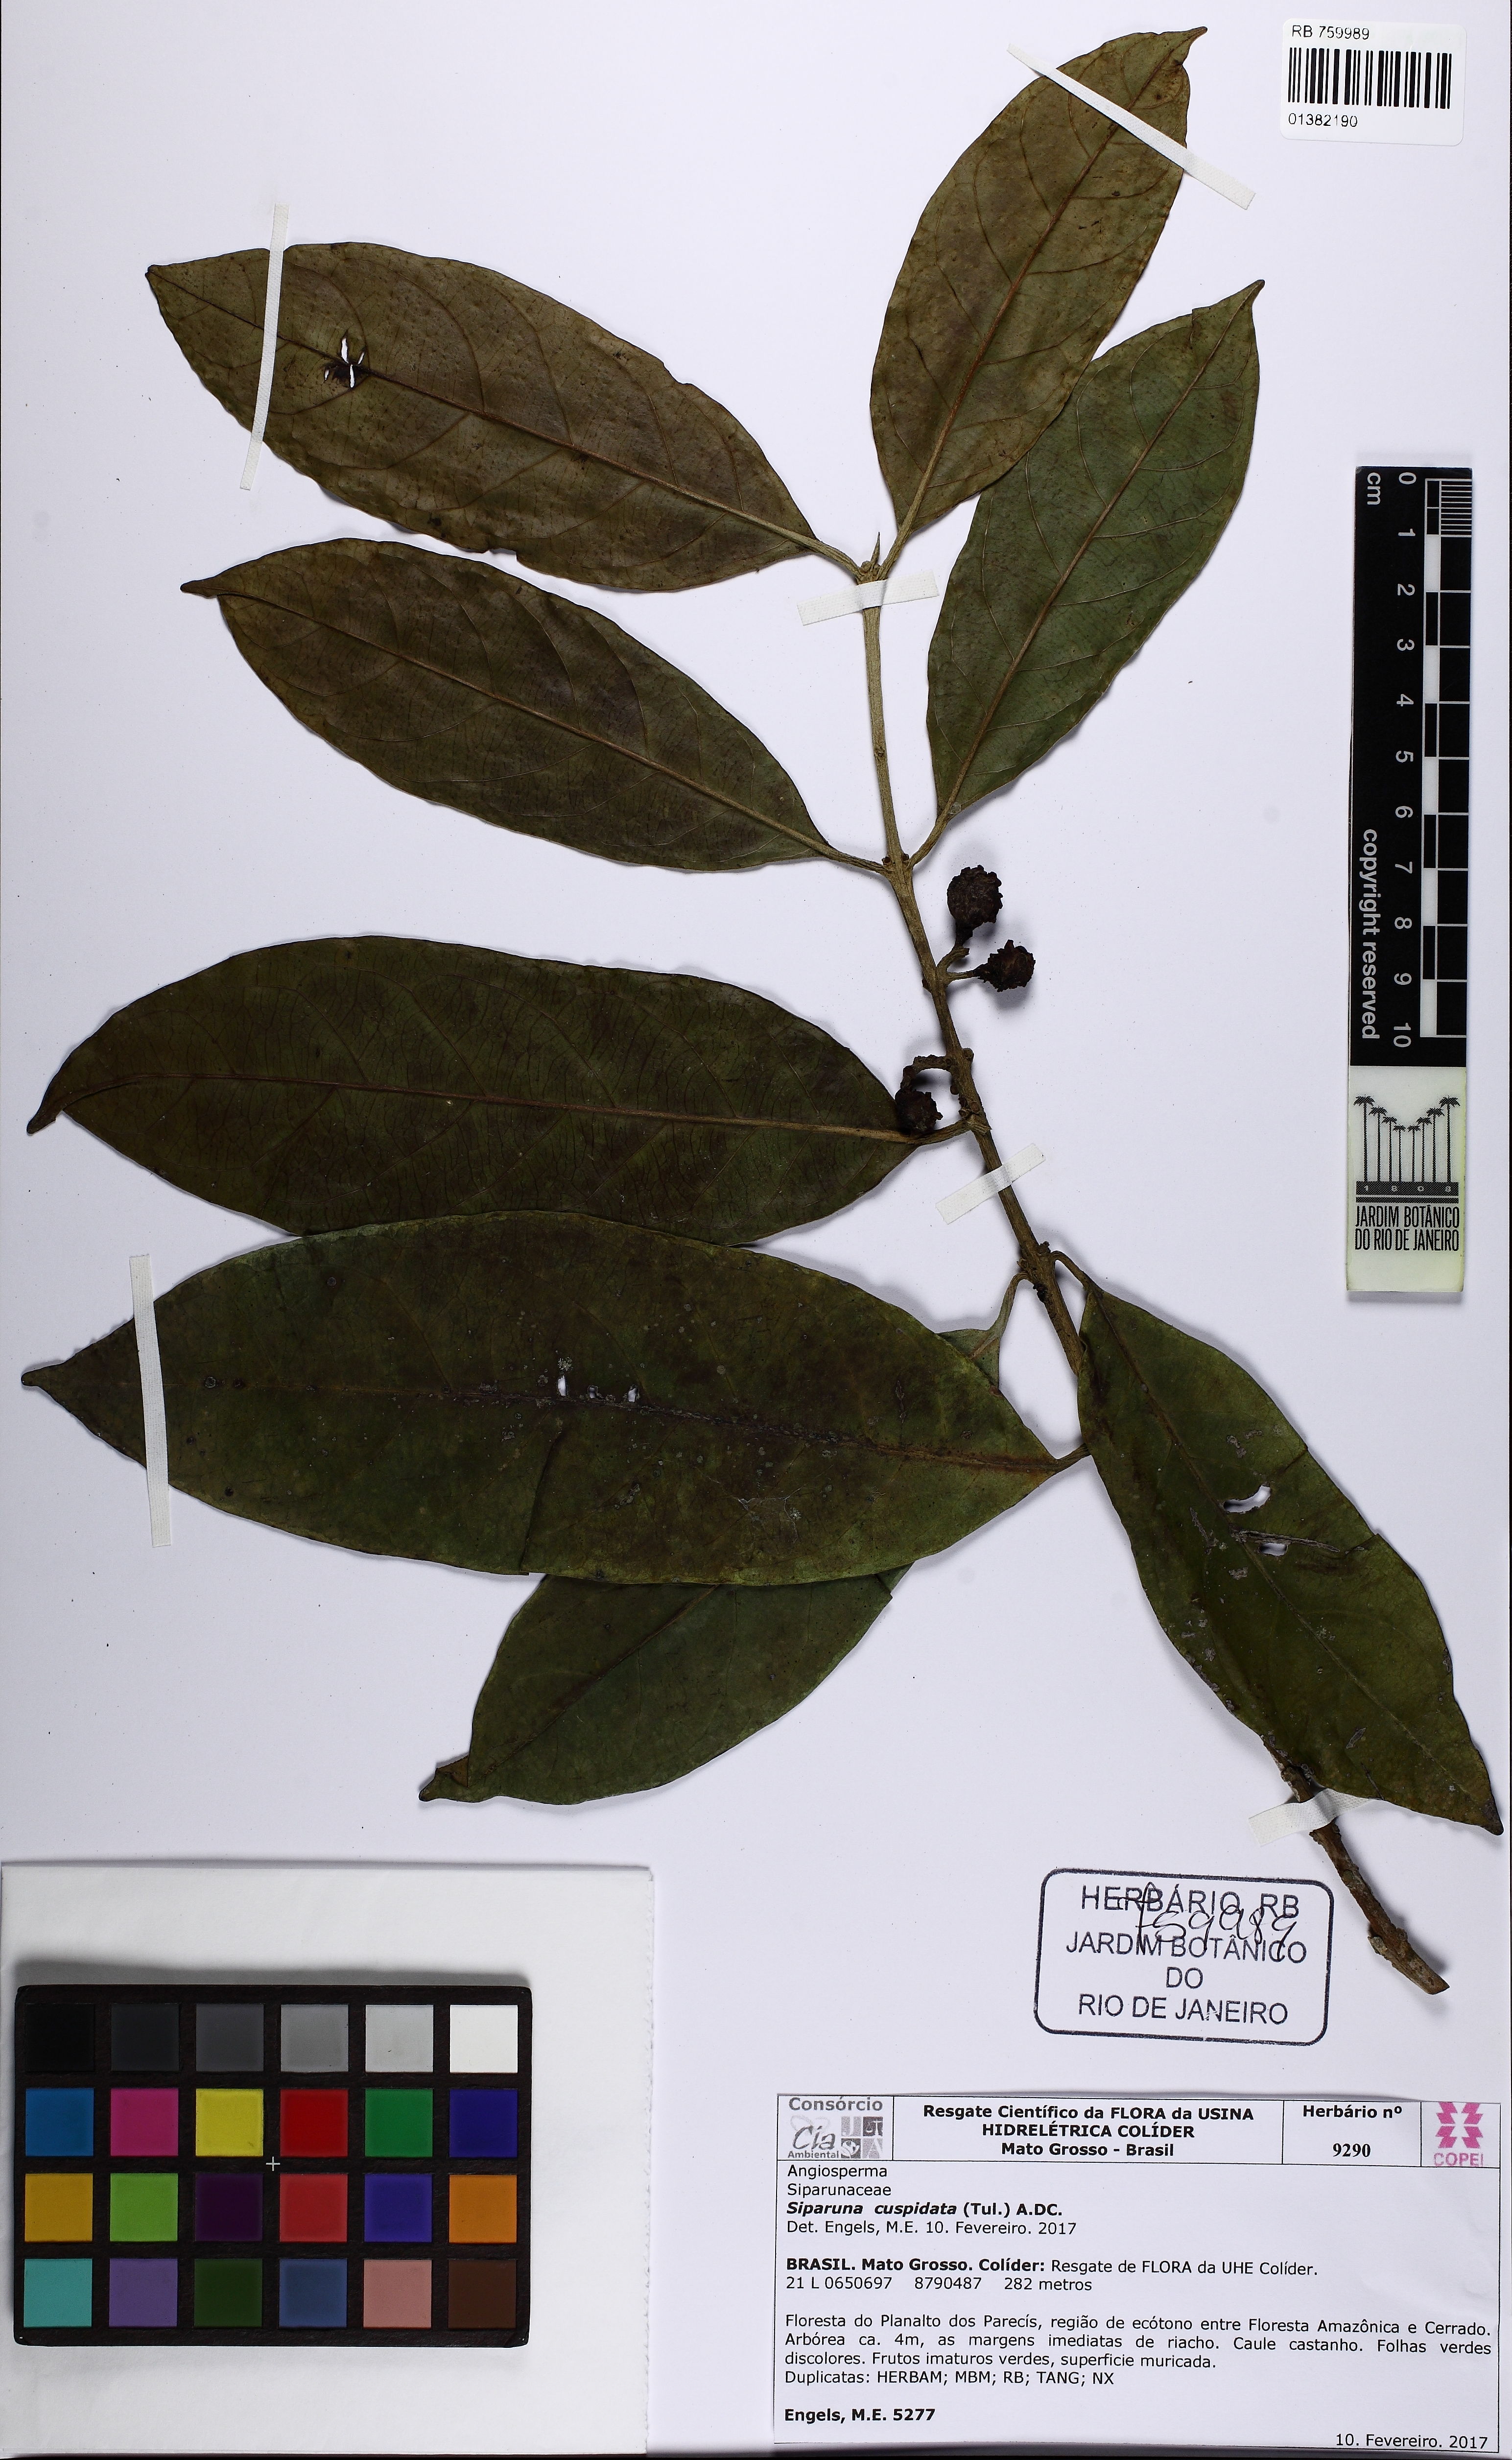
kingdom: Plantae
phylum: Tracheophyta
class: Magnoliopsida
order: Laurales
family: Siparunaceae
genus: Siparuna
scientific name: Siparuna cuspidata
